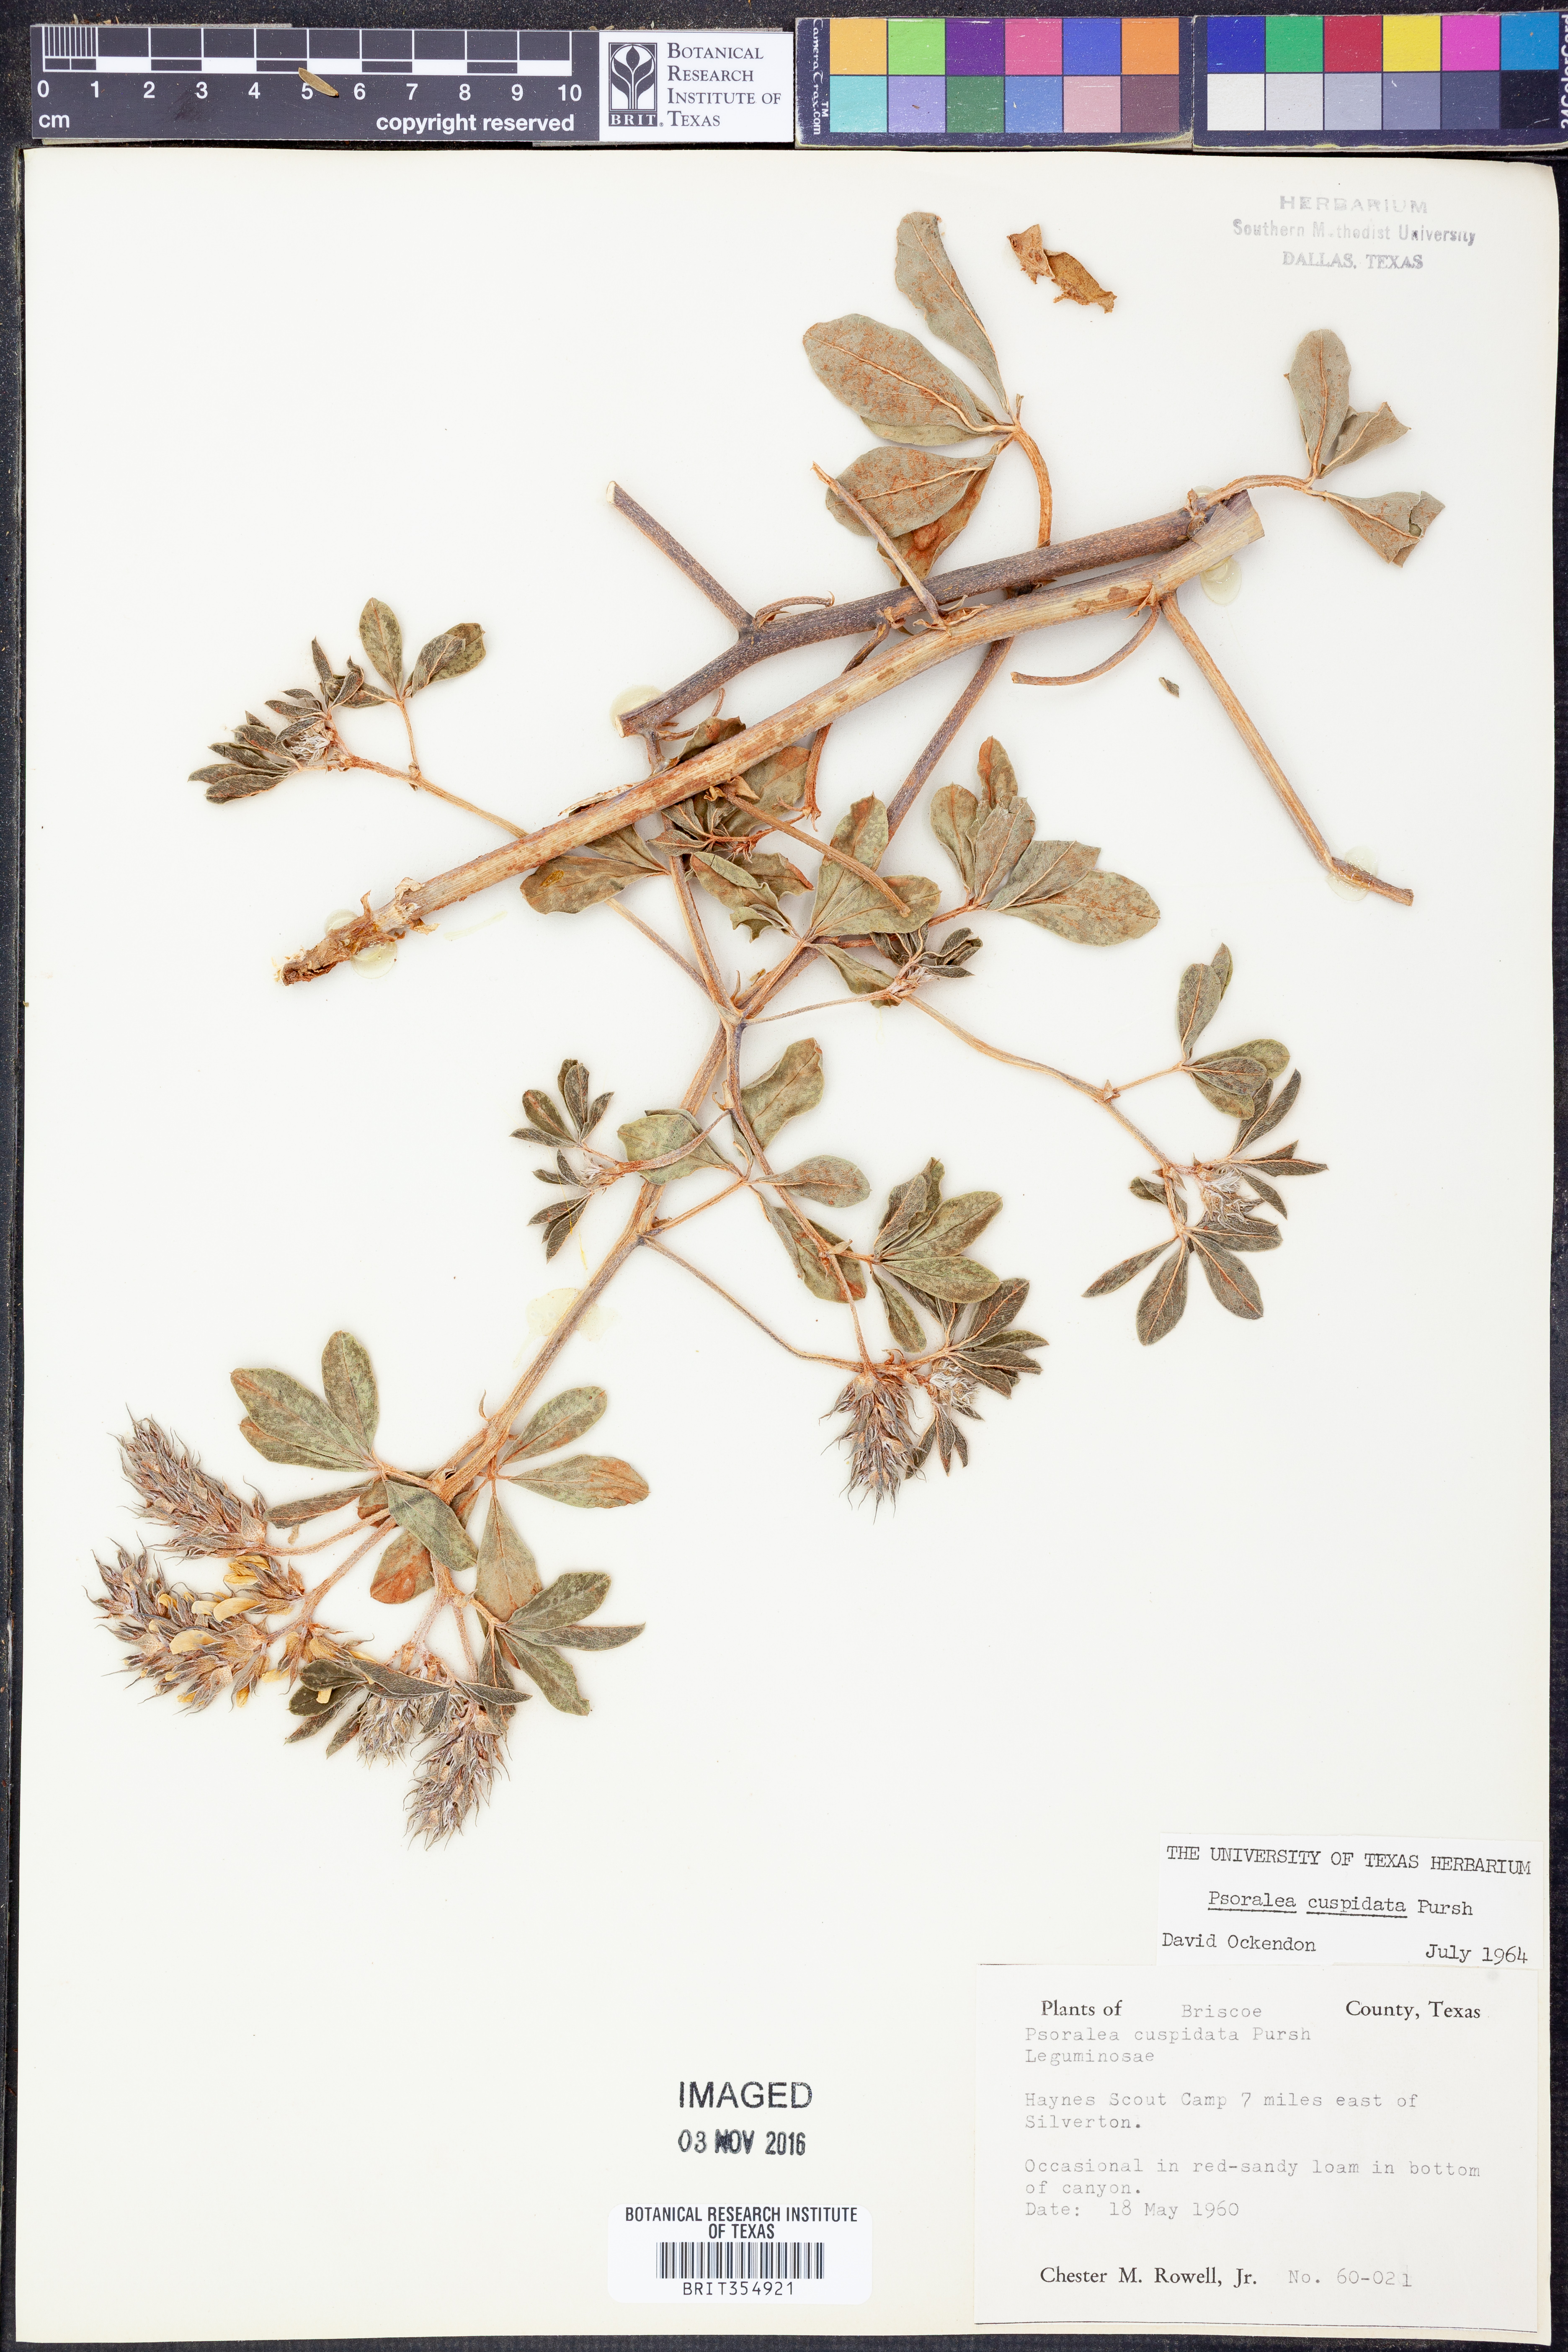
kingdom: Plantae
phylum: Tracheophyta
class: Magnoliopsida
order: Fabales
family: Fabaceae
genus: Pediomelum
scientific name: Pediomelum cuspidatum
